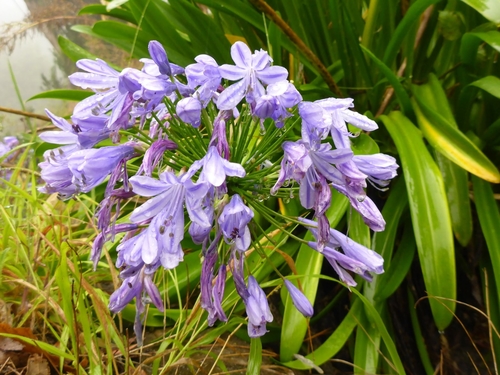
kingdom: Plantae
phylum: Tracheophyta
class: Liliopsida
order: Asparagales
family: Amaryllidaceae
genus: Agapanthus
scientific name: Agapanthus praecox
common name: African-lily
